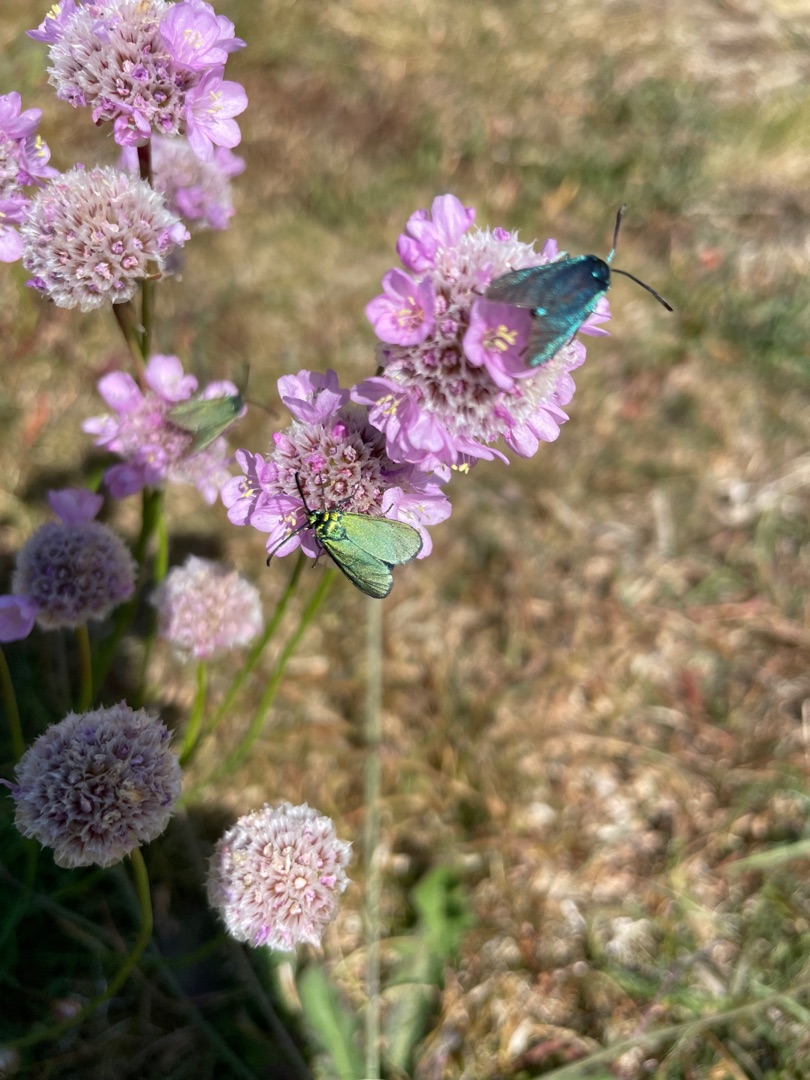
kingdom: Animalia
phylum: Arthropoda
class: Insecta
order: Lepidoptera
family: Zygaenidae
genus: Adscita
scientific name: Adscita statices
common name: Metalvinge
